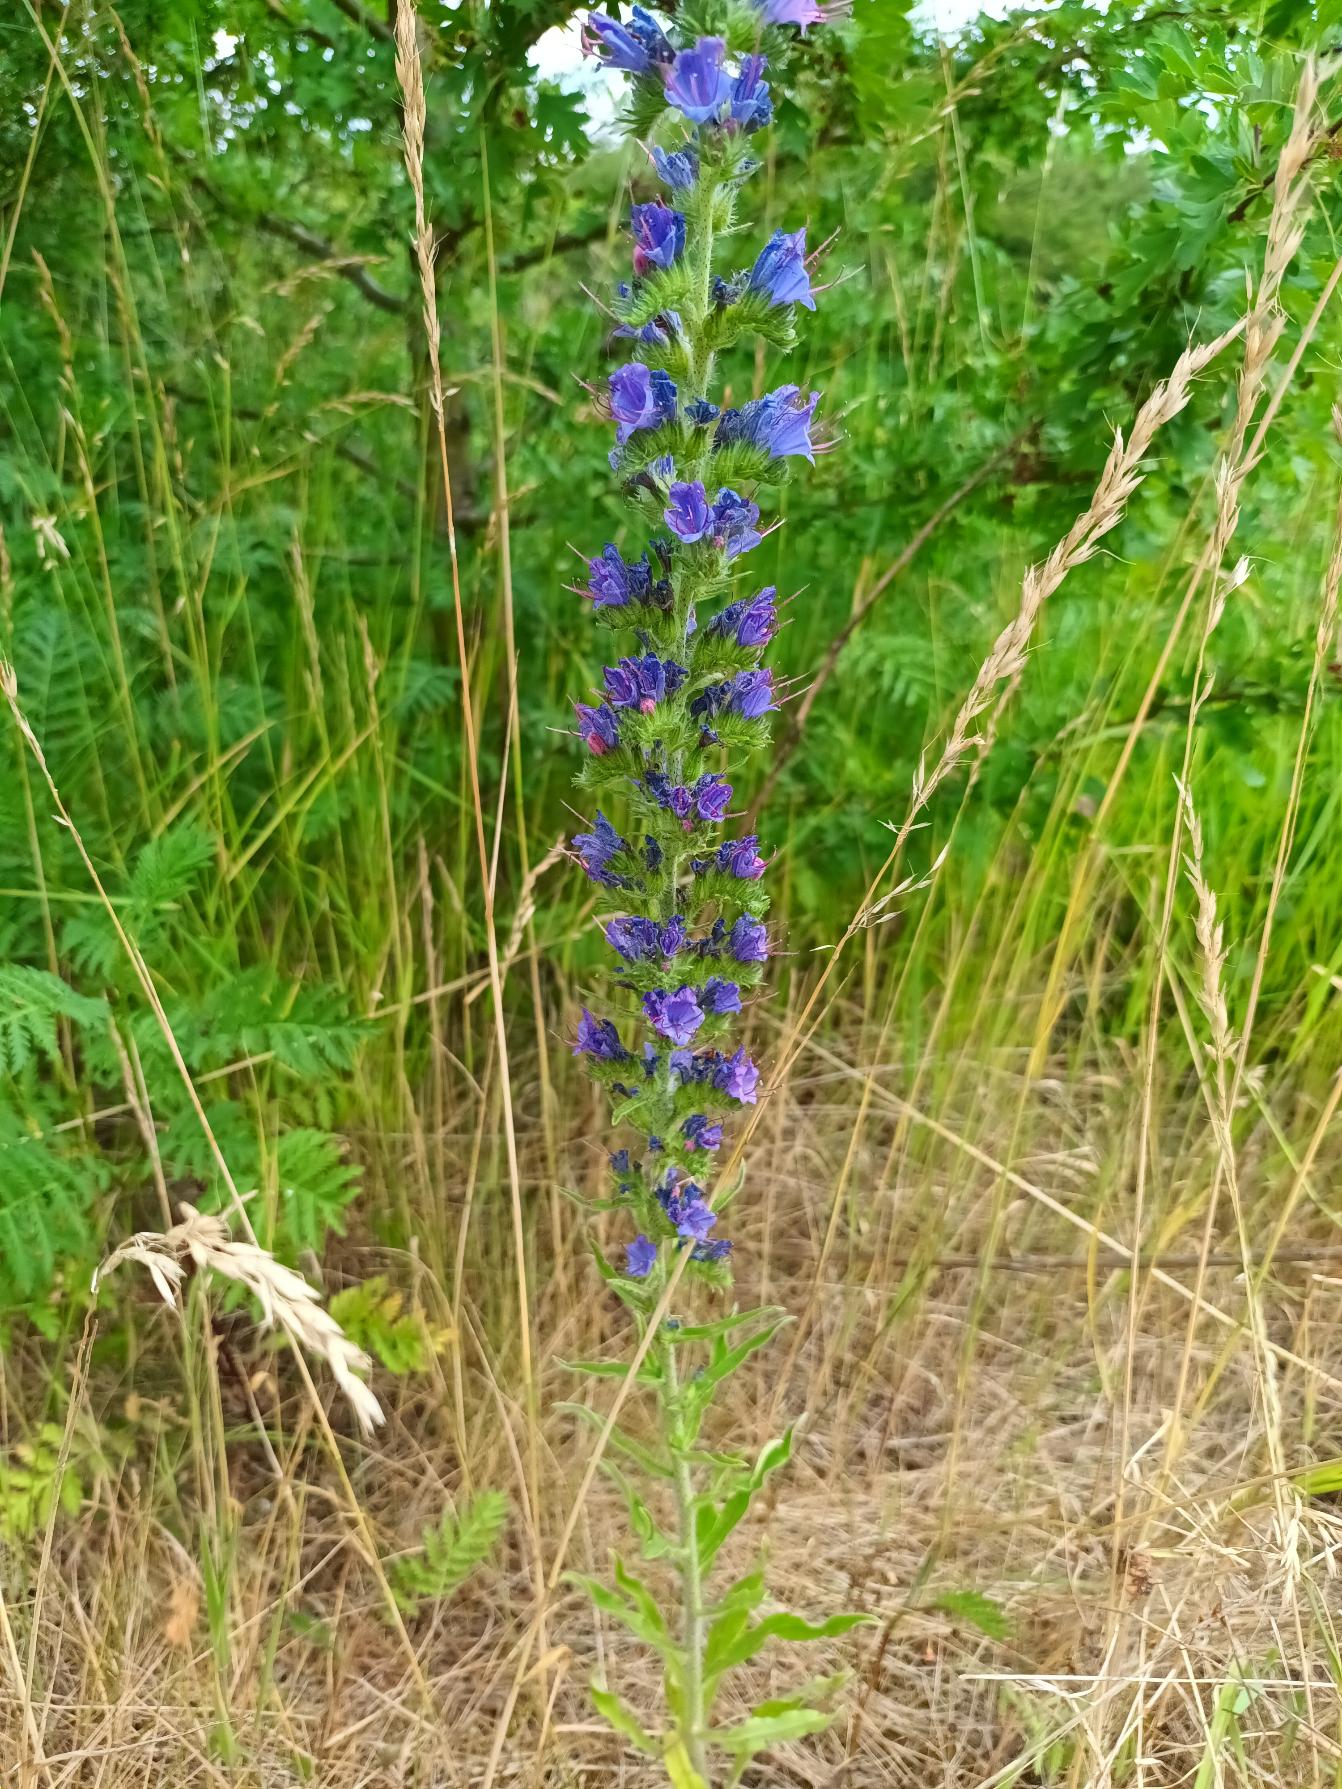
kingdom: Plantae
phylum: Tracheophyta
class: Magnoliopsida
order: Boraginales
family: Boraginaceae
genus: Echium
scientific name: Echium vulgare
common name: Slangehoved
